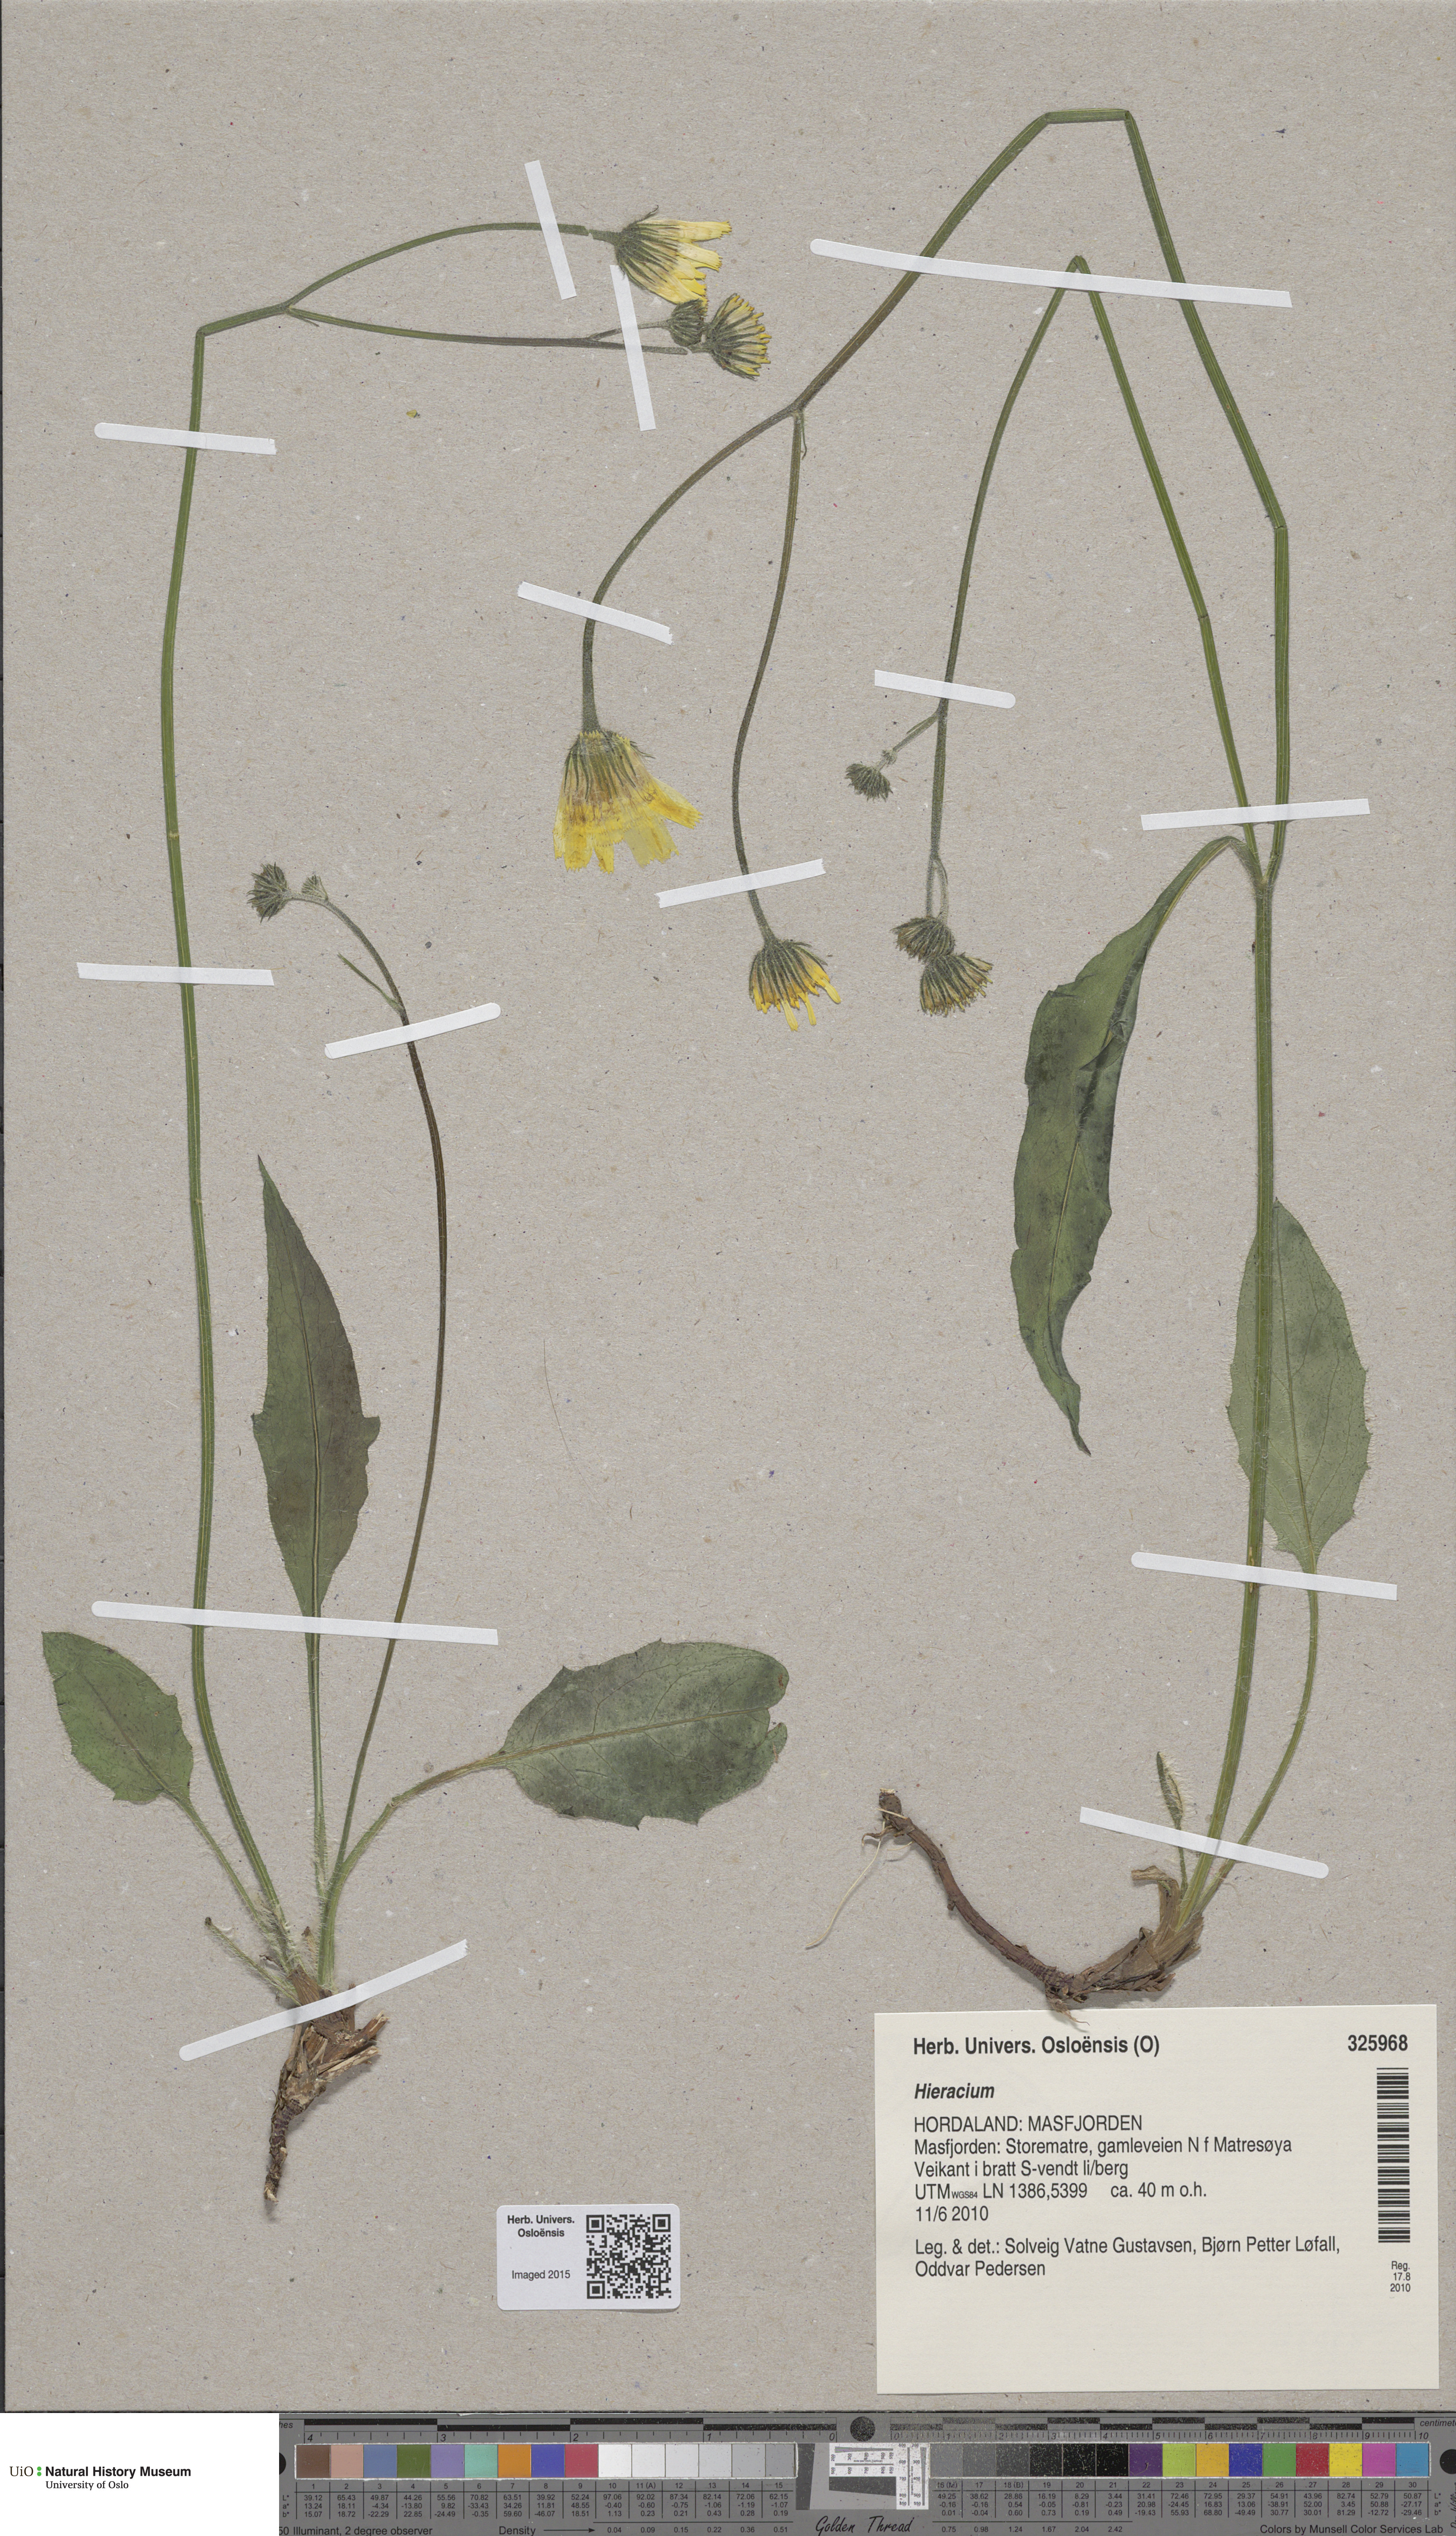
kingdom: Plantae
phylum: Tracheophyta
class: Magnoliopsida
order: Asterales
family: Asteraceae
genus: Hieracium
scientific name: Hieracium
